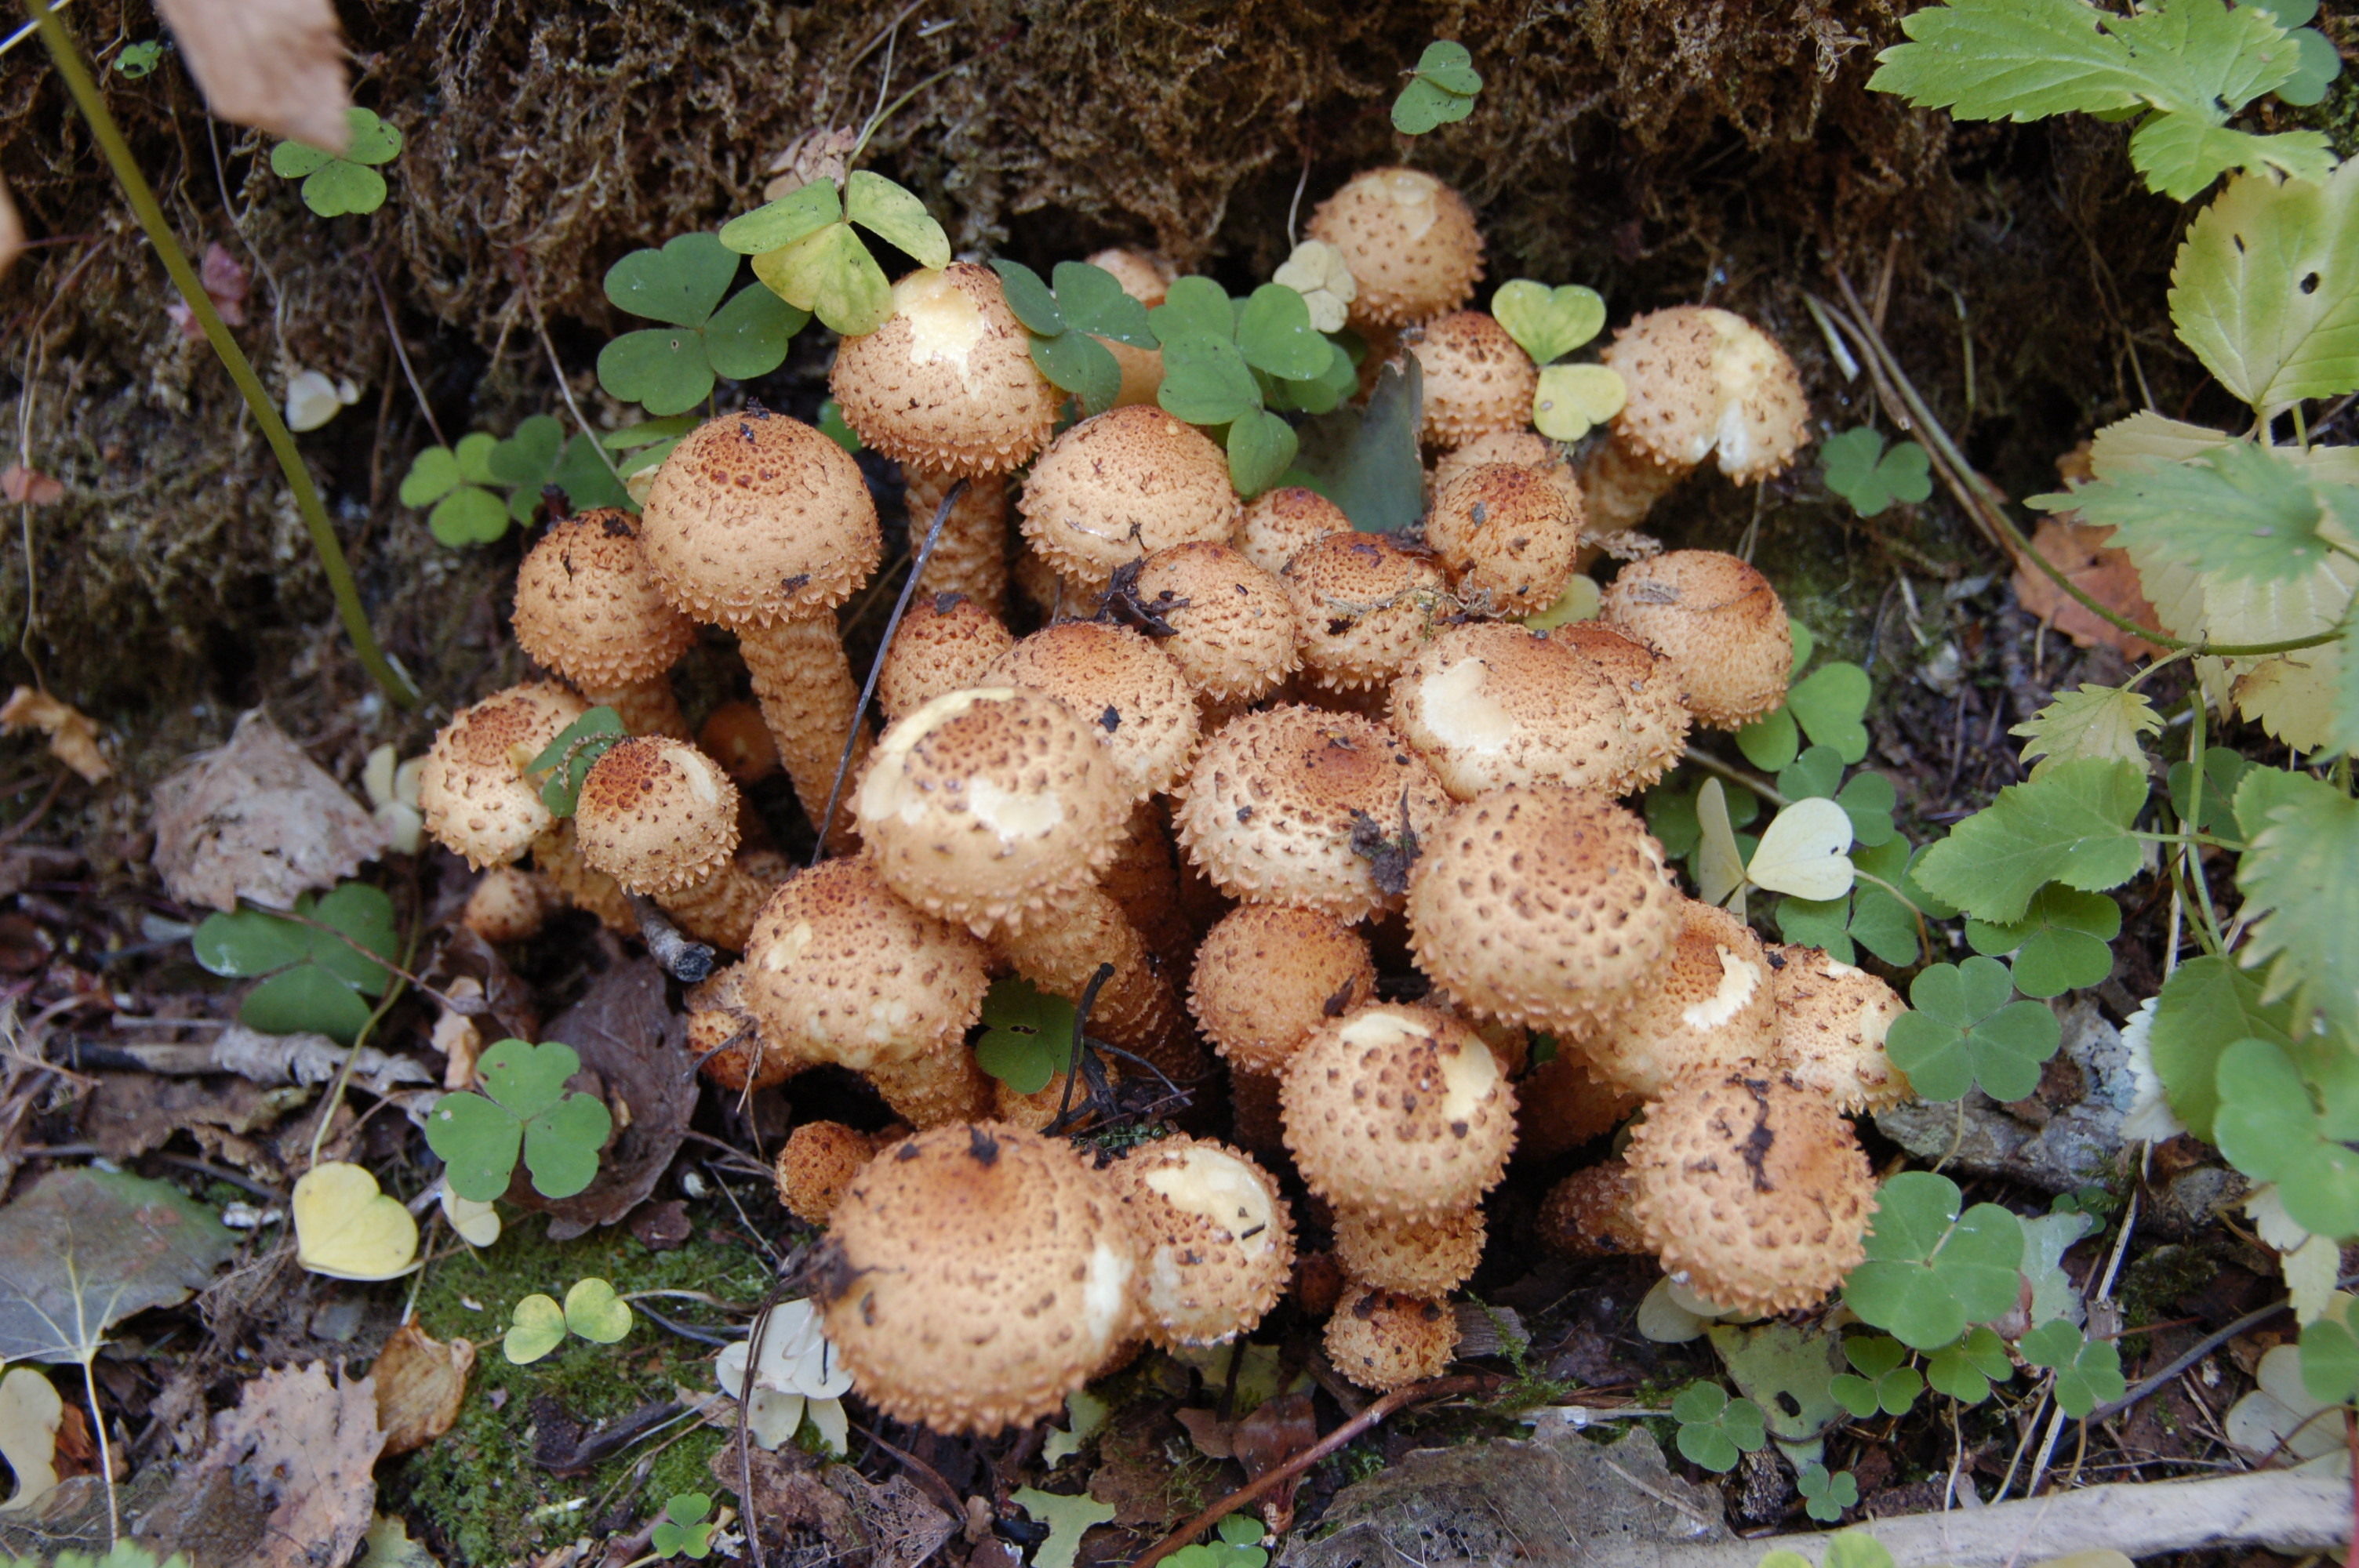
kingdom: Fungi
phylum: Basidiomycota
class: Agaricomycetes
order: Agaricales
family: Strophariaceae
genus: Pholiota
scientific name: Pholiota squarrosa
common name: Shaggy pholiota
